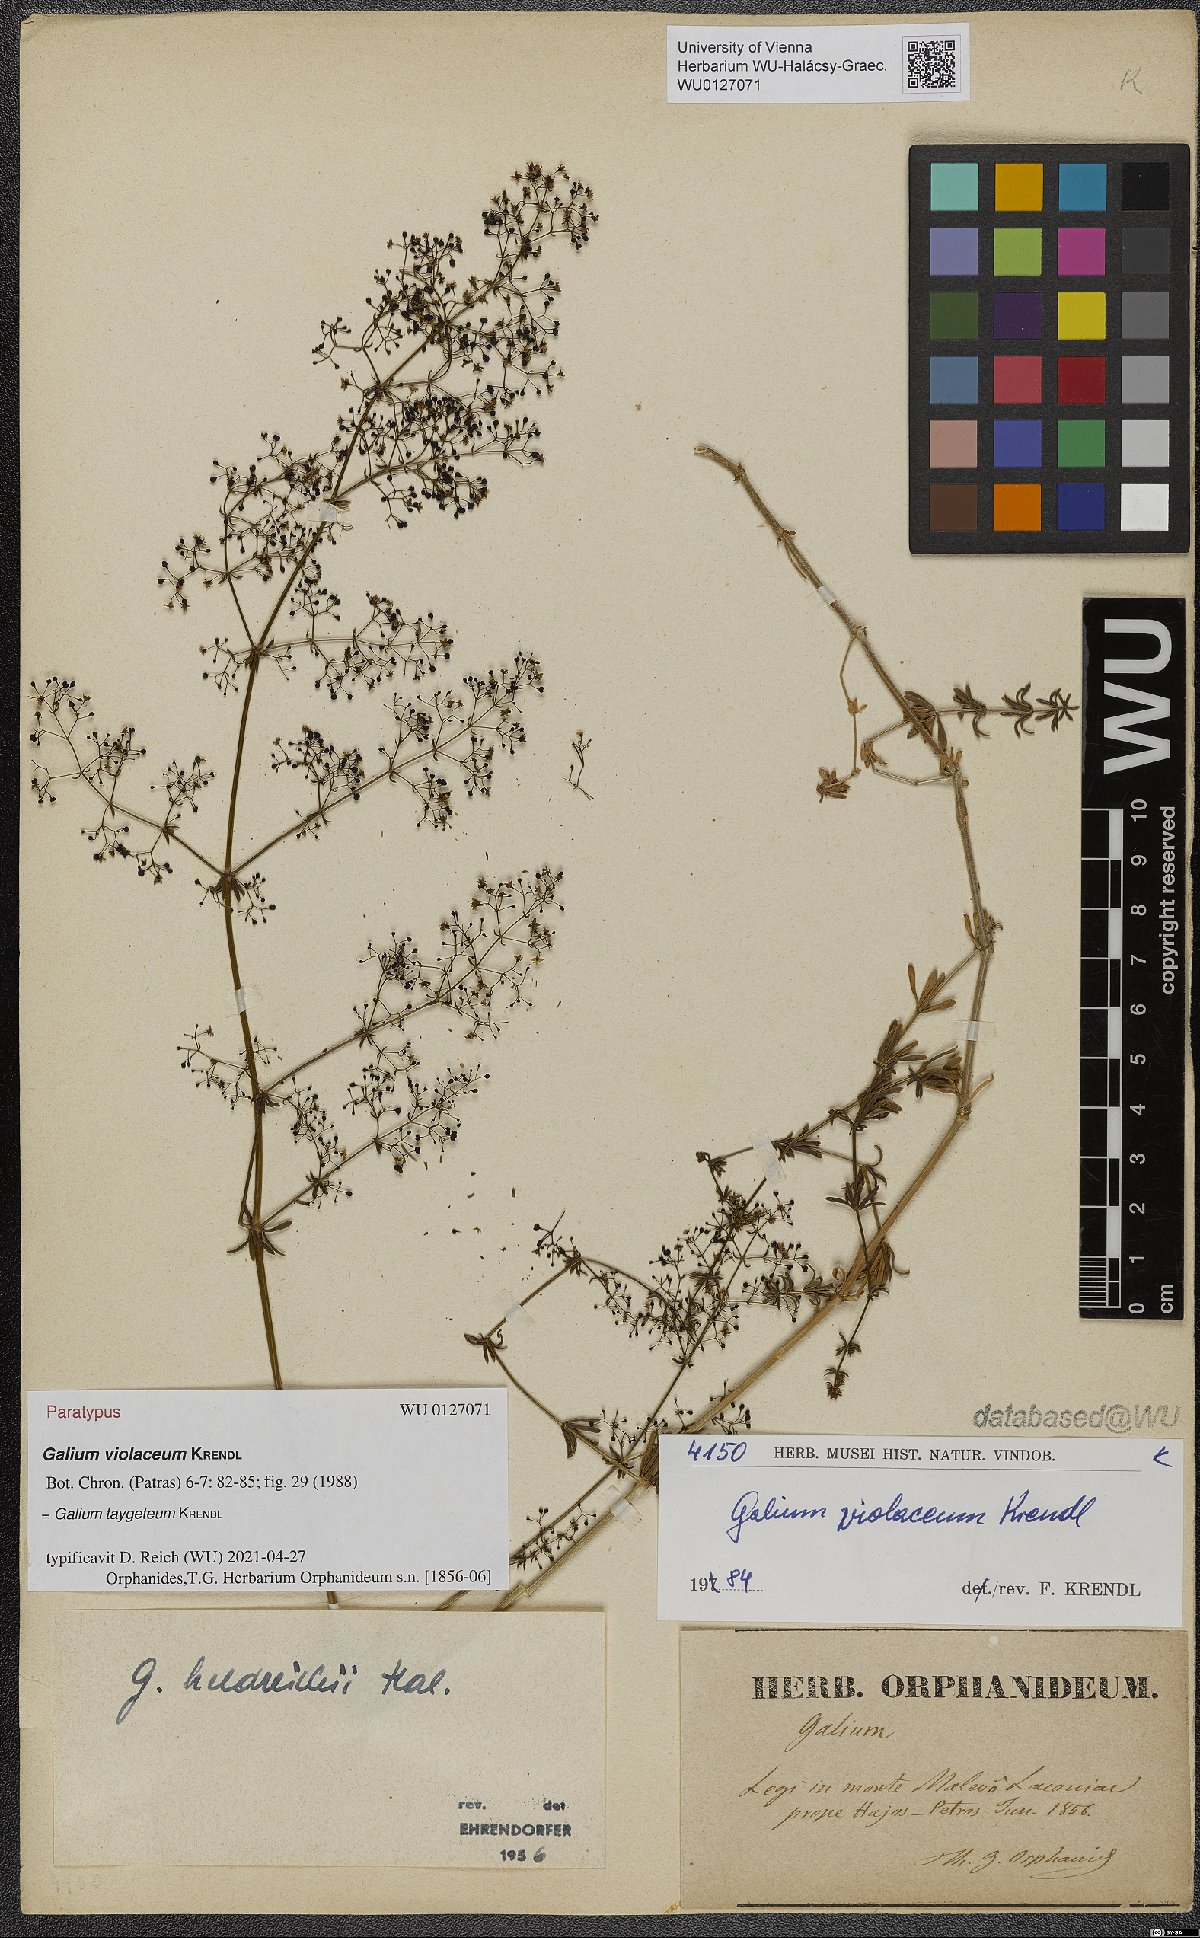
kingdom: Plantae
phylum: Tracheophyta
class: Magnoliopsida
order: Gentianales
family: Rubiaceae
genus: Galium
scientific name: Galium taygeteum
